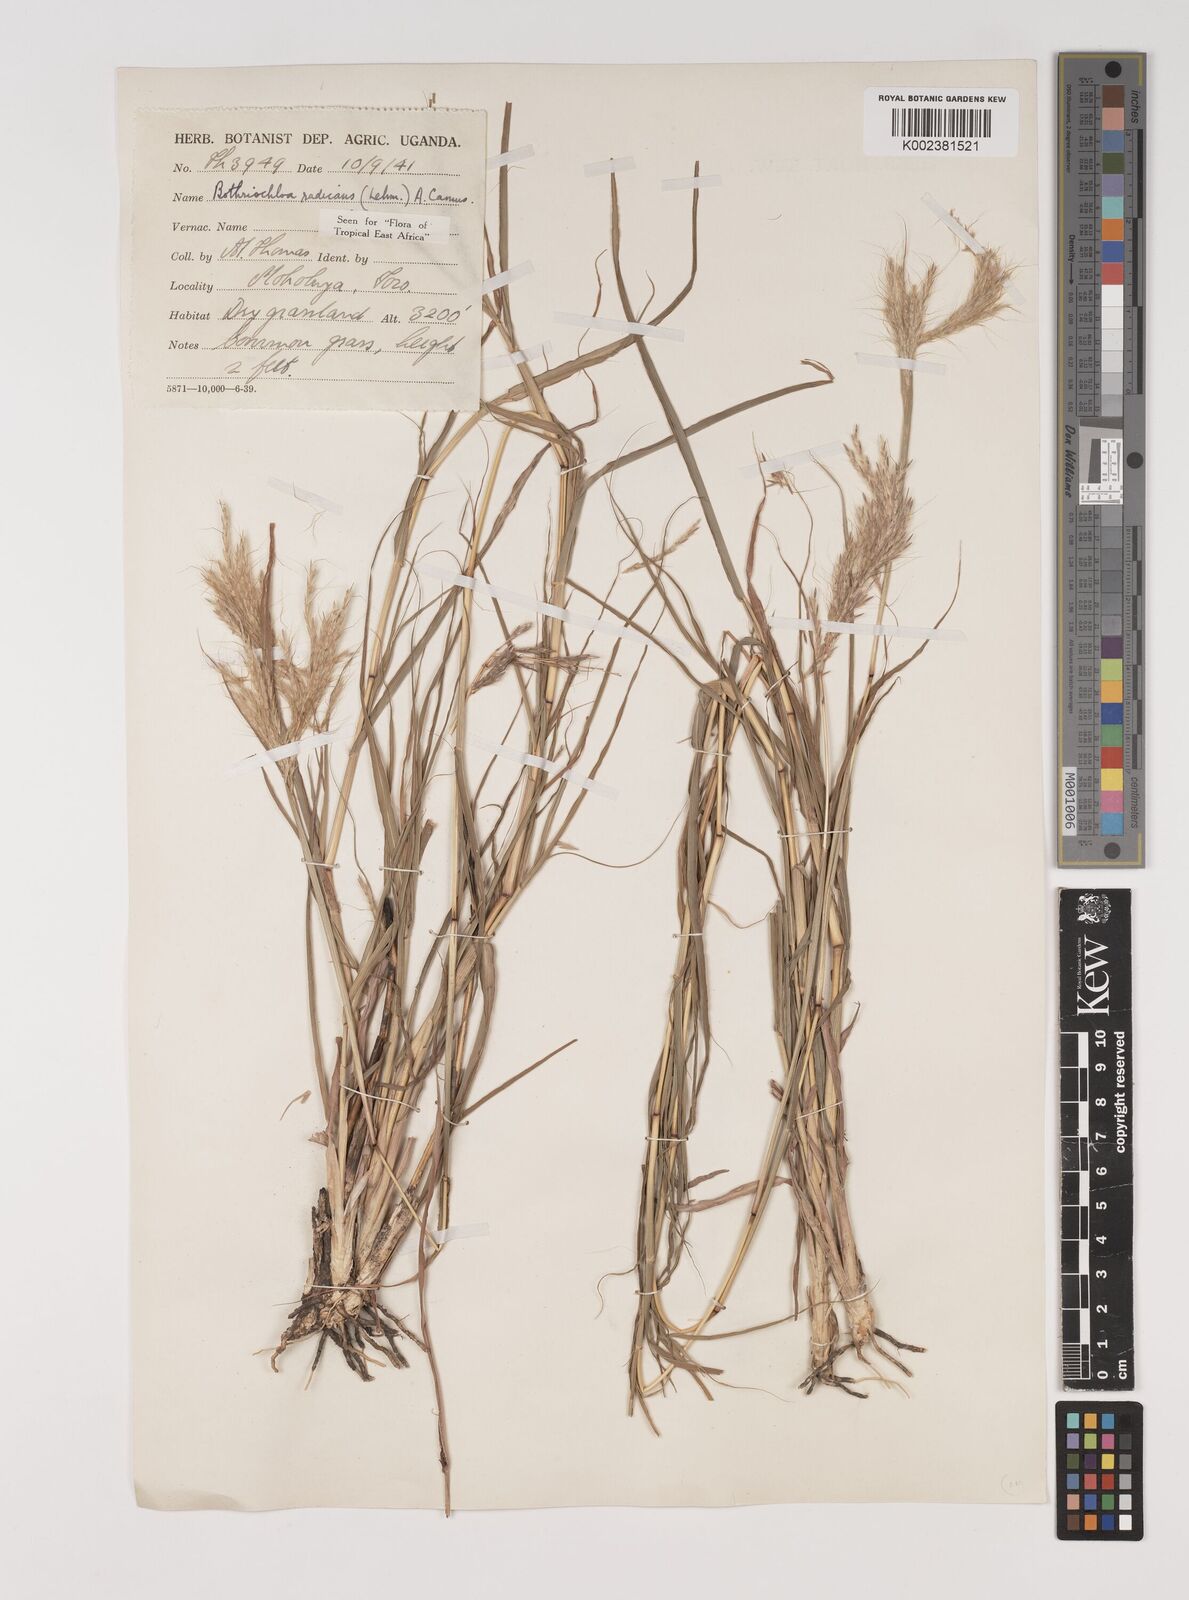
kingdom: Plantae
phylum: Tracheophyta
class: Liliopsida
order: Poales
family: Poaceae
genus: Bothriochloa
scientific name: Bothriochloa radicans
